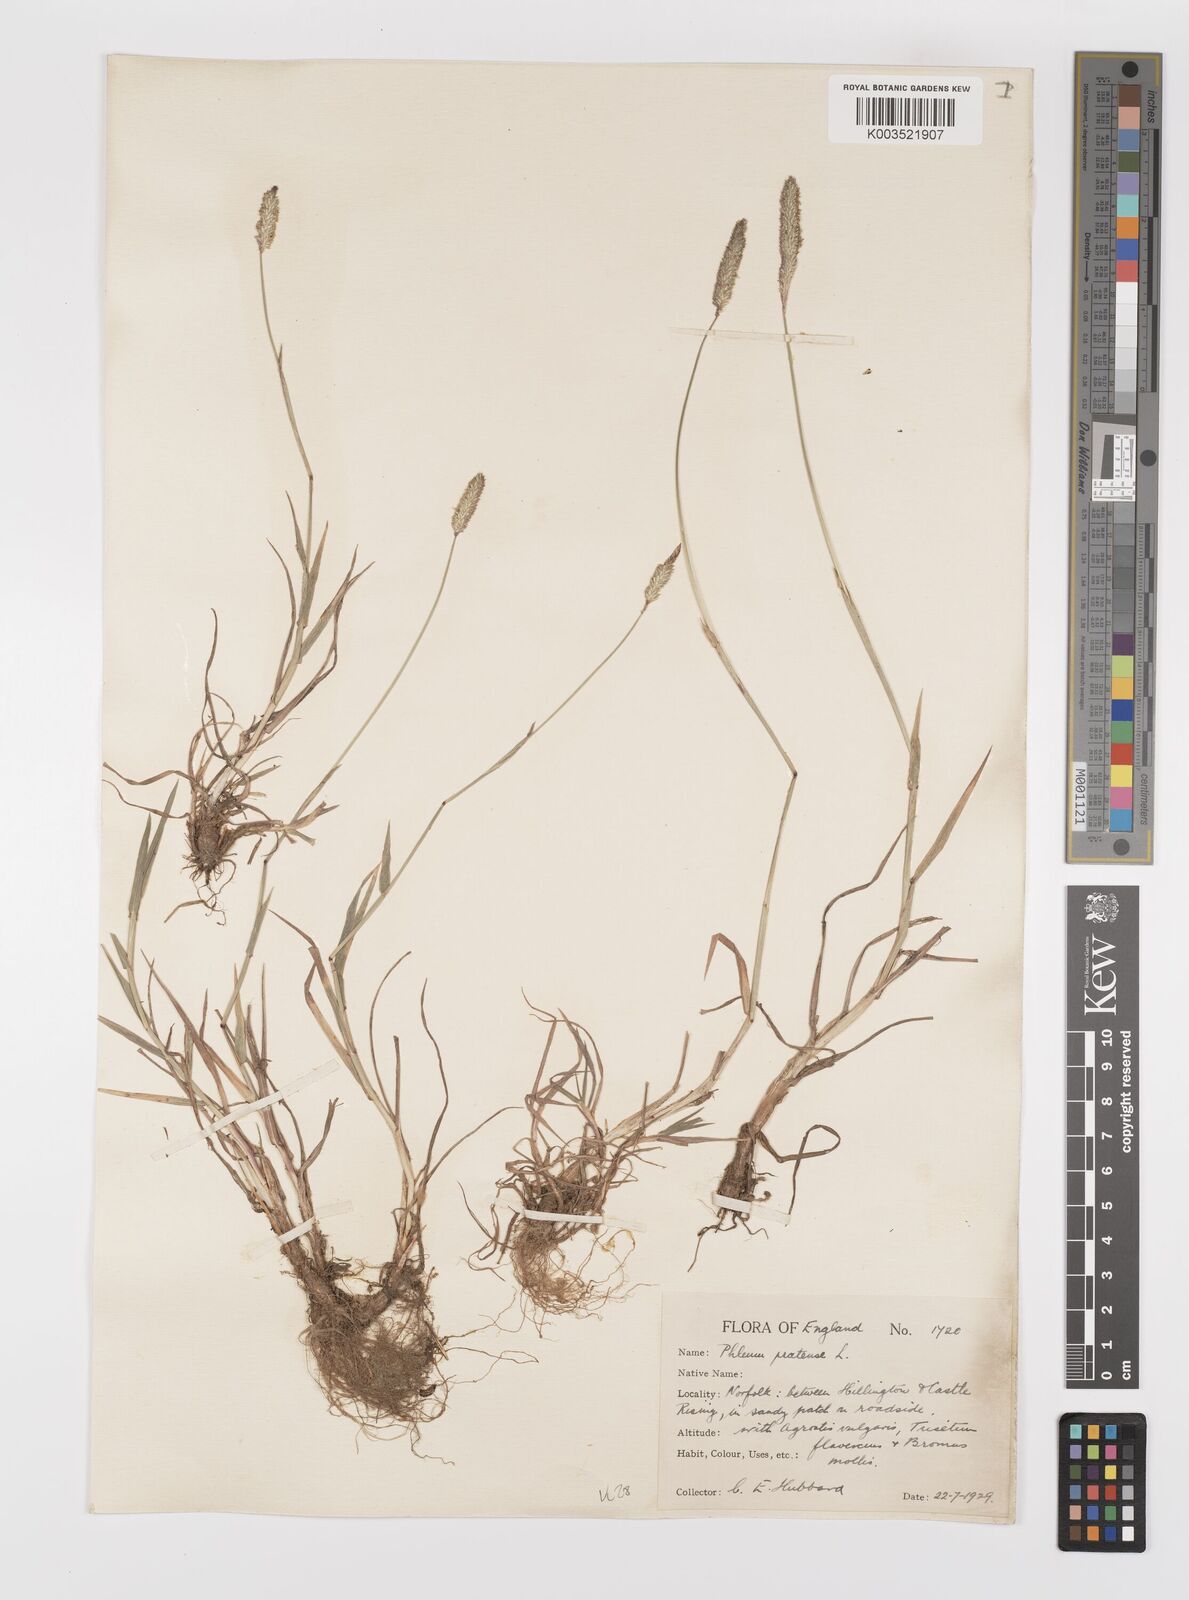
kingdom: Plantae
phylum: Tracheophyta
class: Liliopsida
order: Poales
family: Poaceae
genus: Phleum
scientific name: Phleum bertolonii
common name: Smaller cat's-tail
